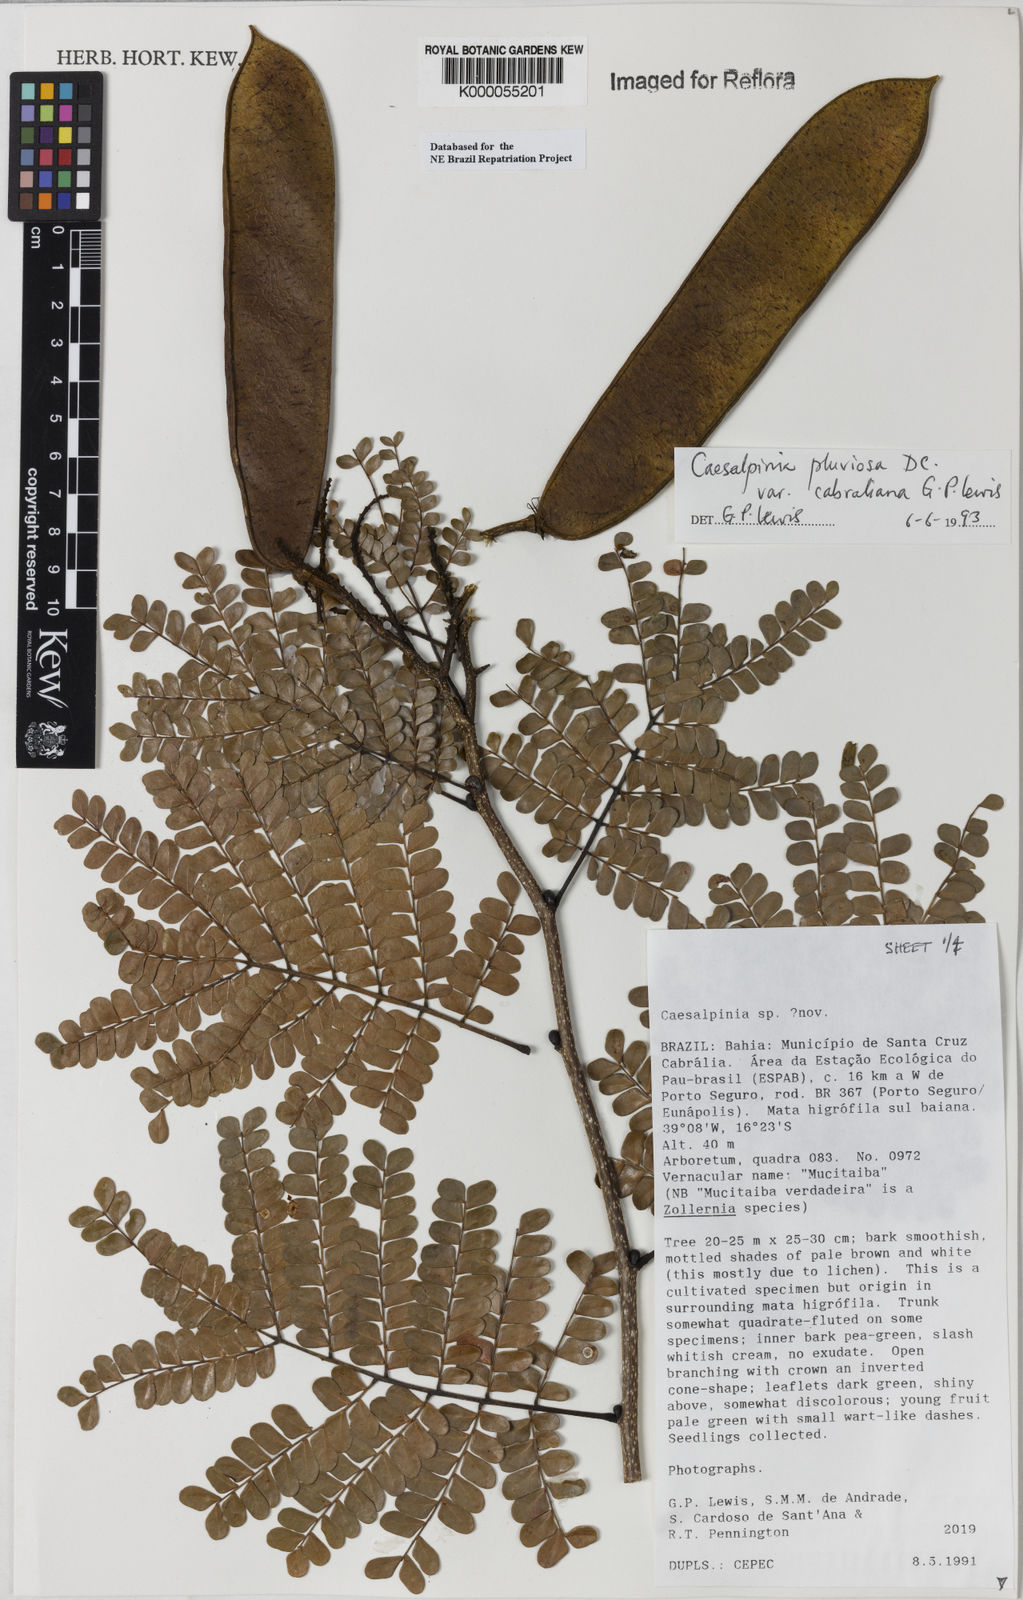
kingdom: Plantae
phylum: Tracheophyta
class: Magnoliopsida
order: Fabales
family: Fabaceae
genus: Cenostigma
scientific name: Cenostigma pluviosum
